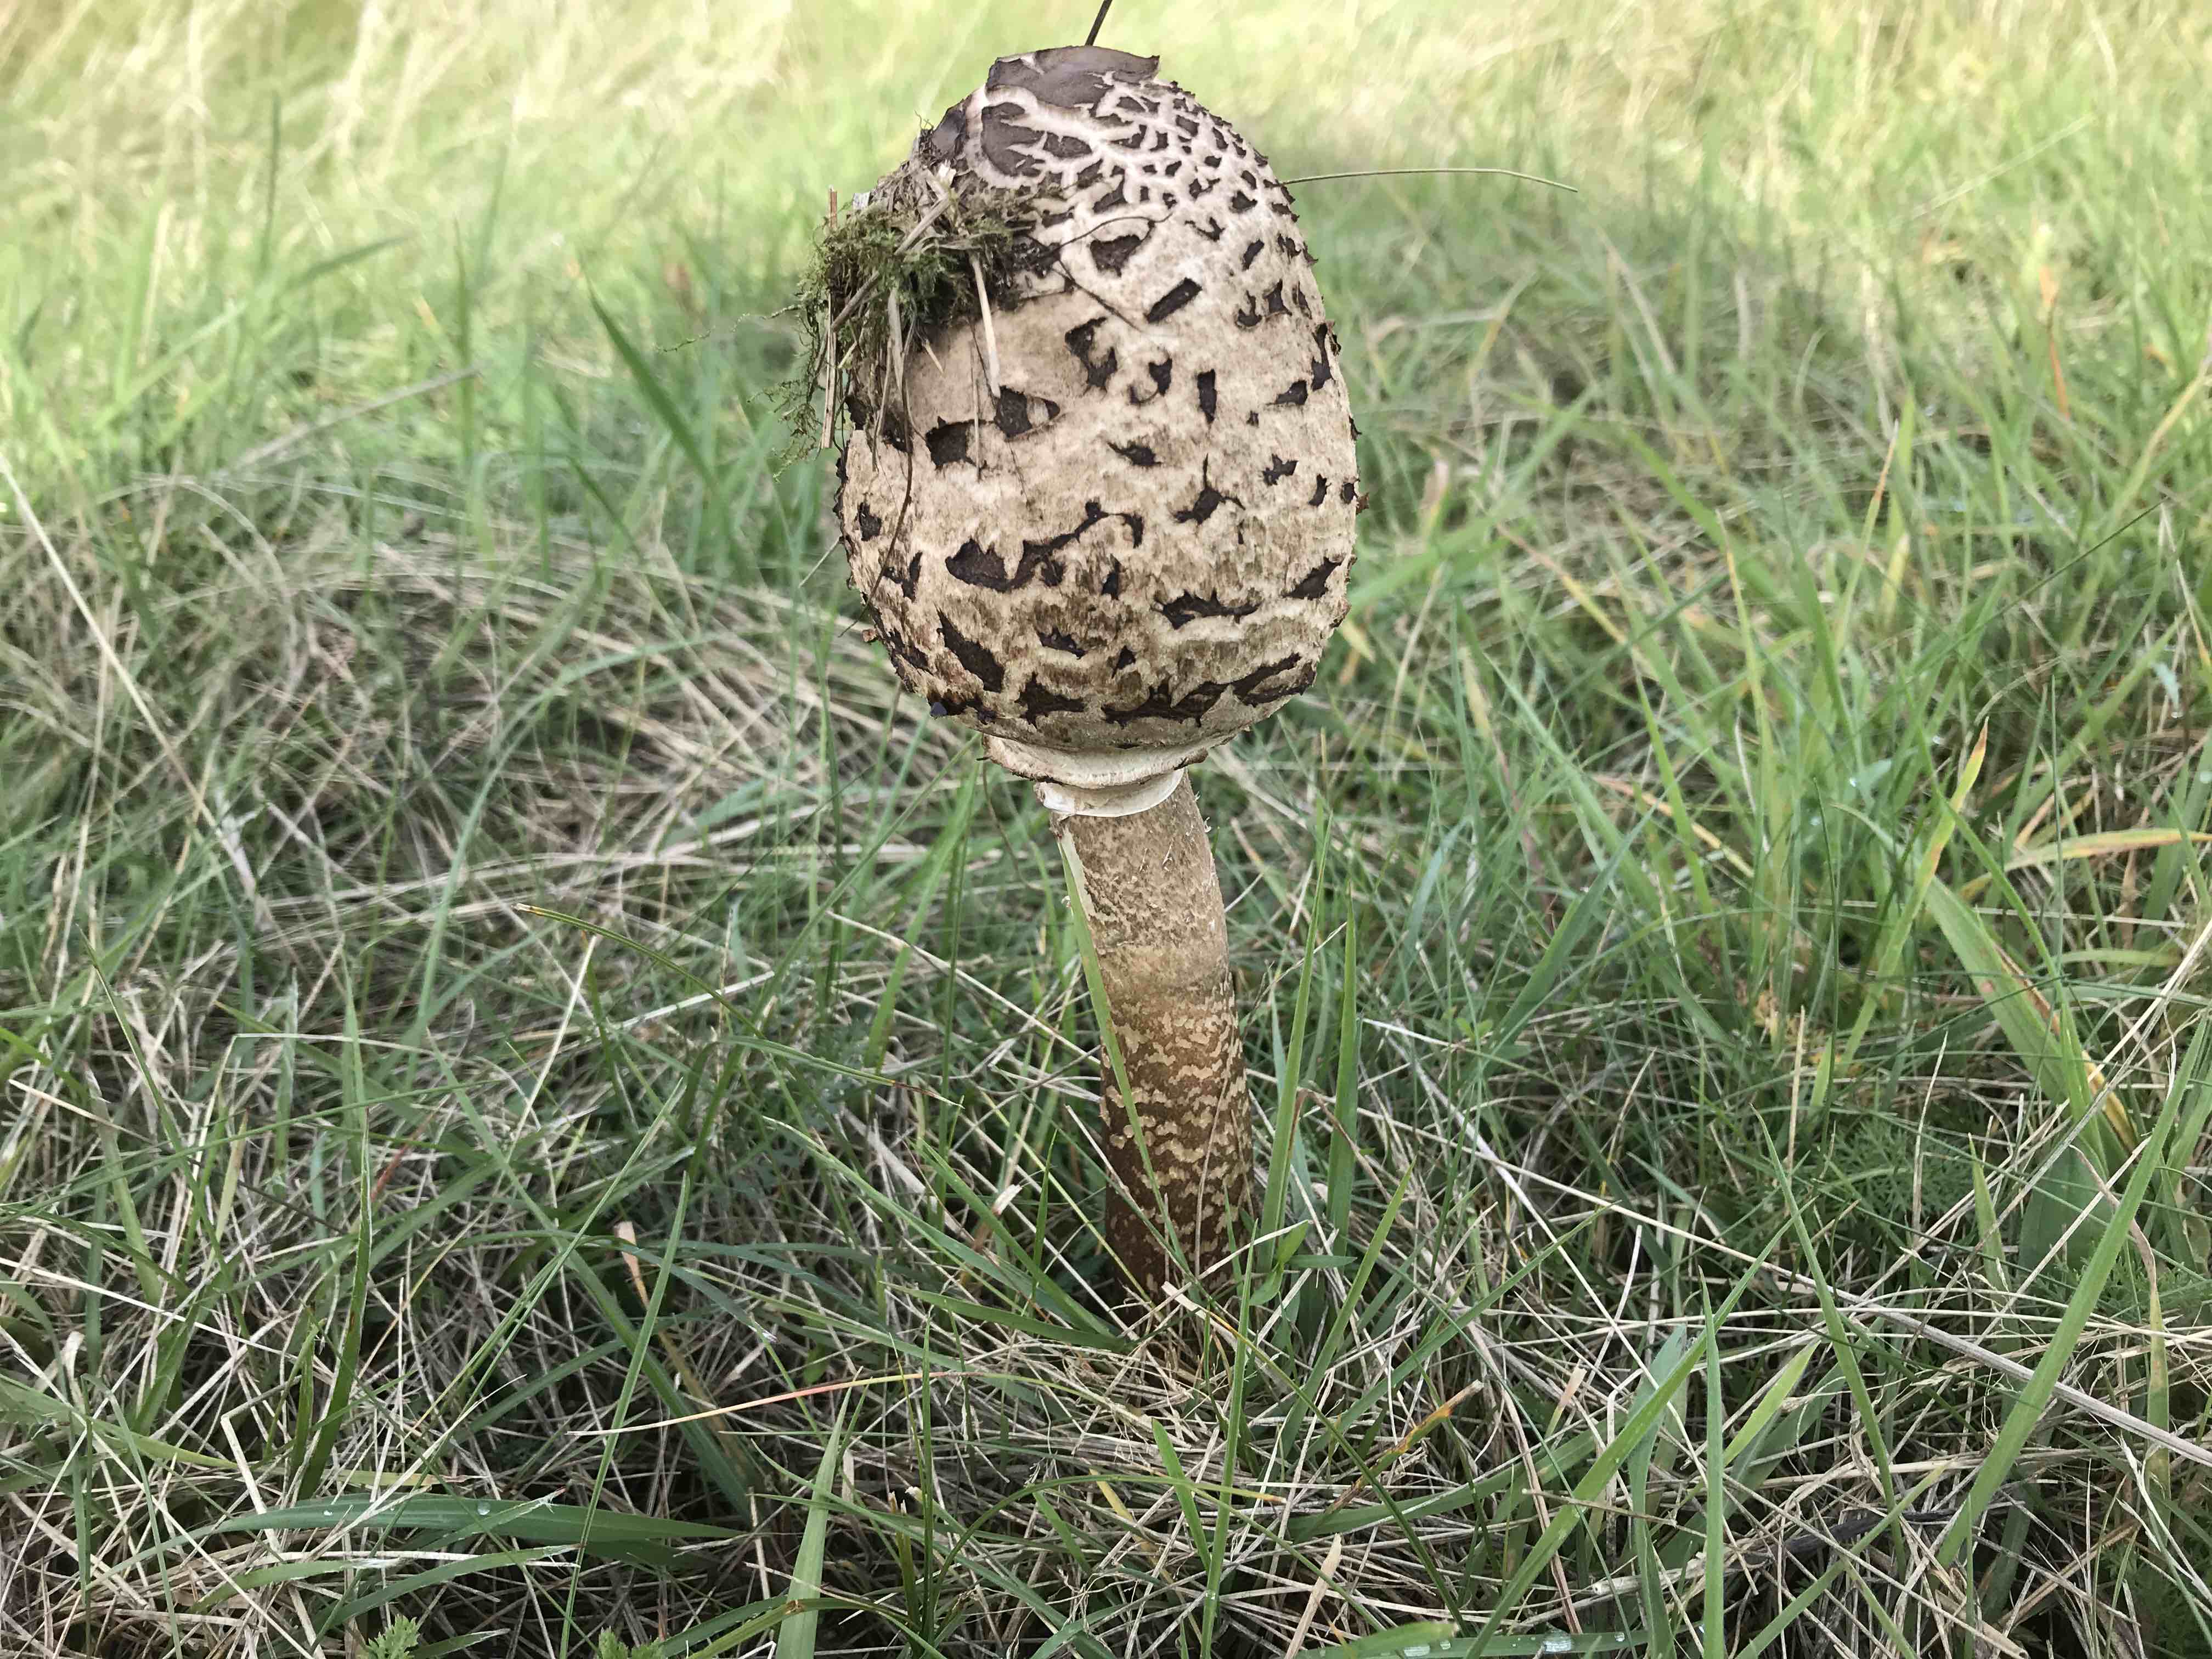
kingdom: Fungi
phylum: Basidiomycota
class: Agaricomycetes
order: Agaricales
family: Agaricaceae
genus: Macrolepiota
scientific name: Macrolepiota procera
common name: stor kæmpeparasolhat
